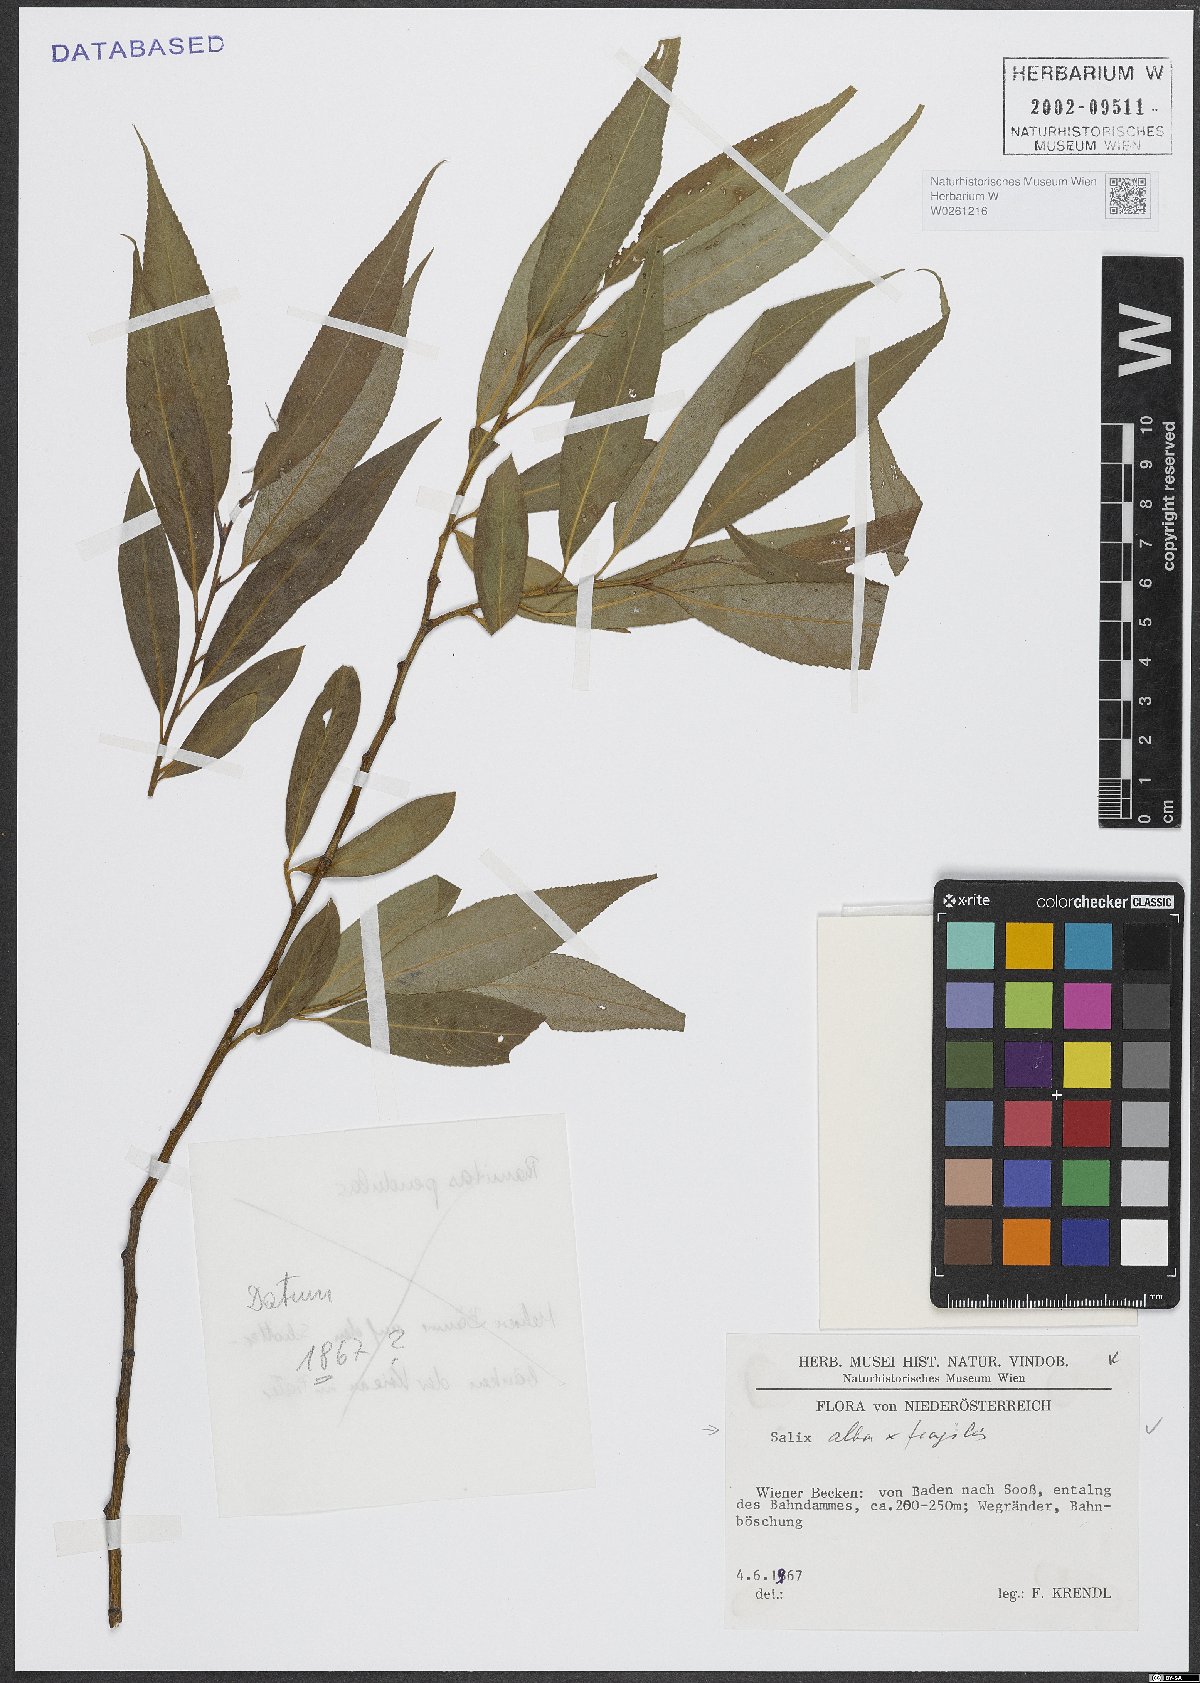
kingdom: Plantae
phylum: Tracheophyta
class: Magnoliopsida
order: Malpighiales
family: Salicaceae
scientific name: Salicaceae
